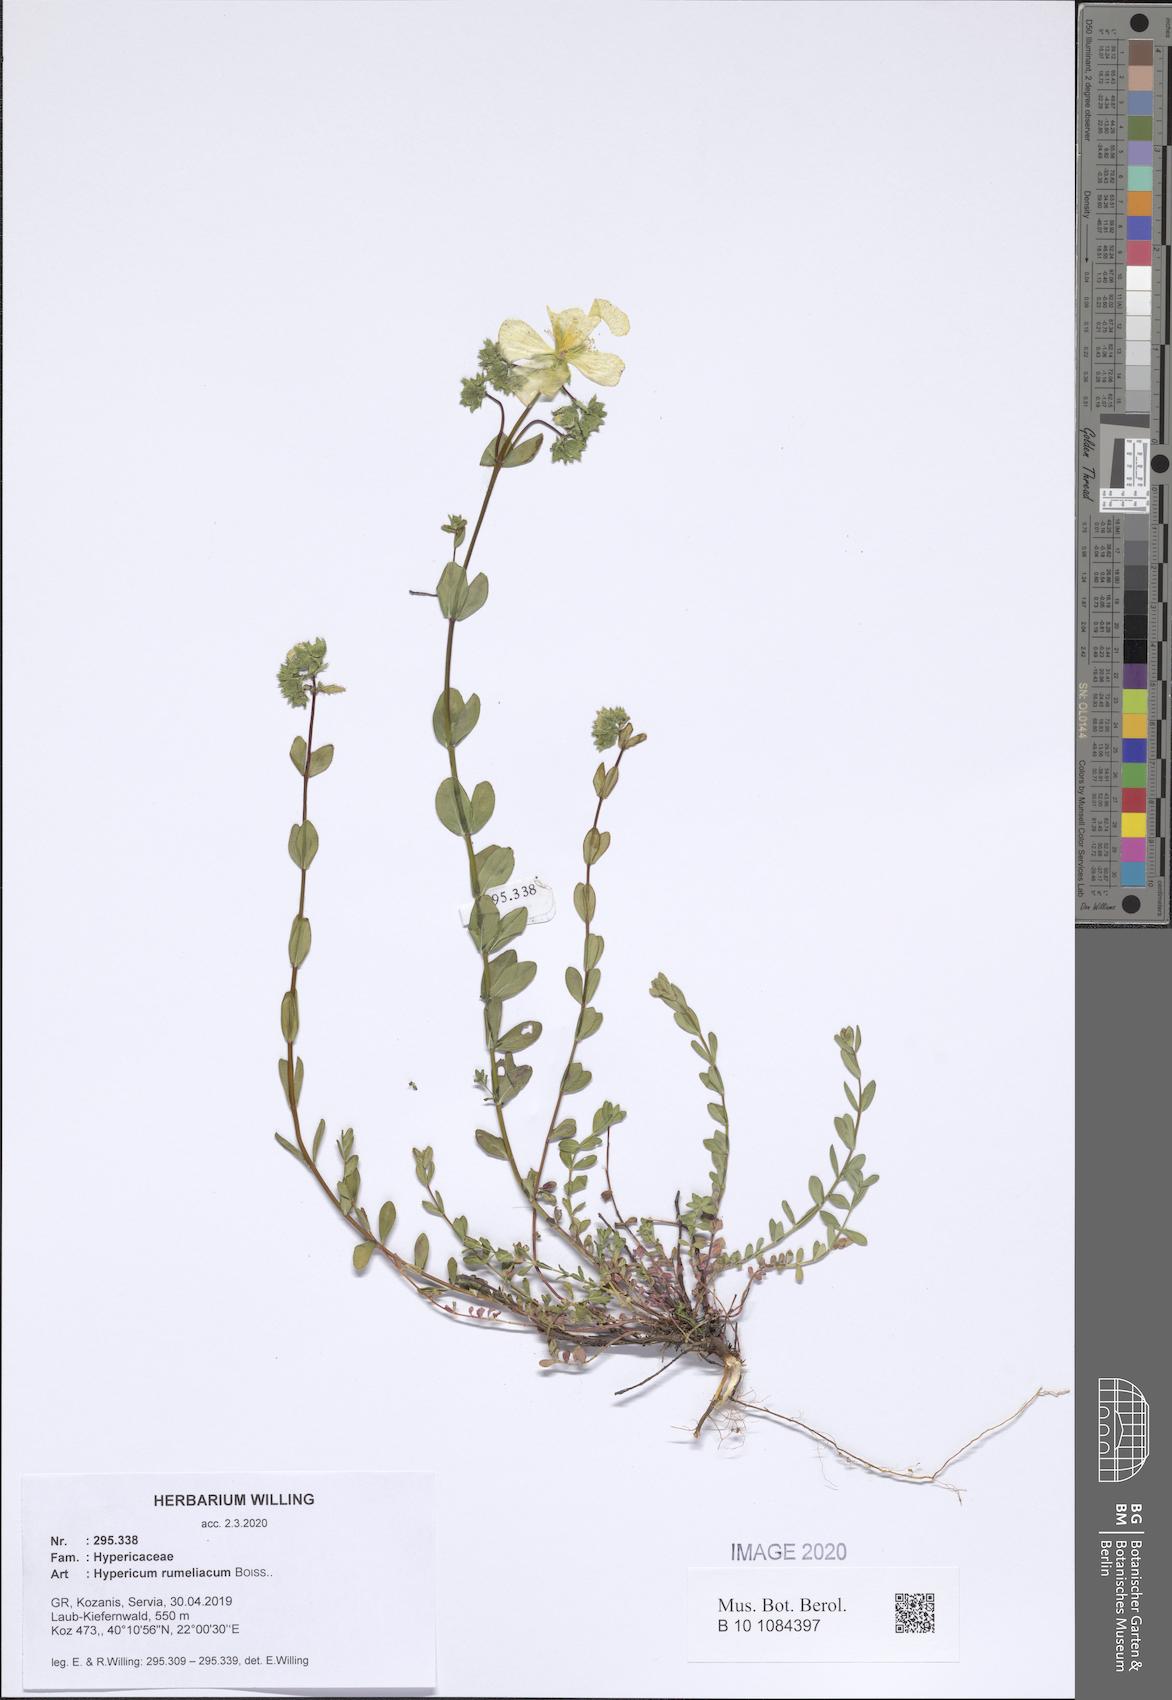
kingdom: Plantae
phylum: Tracheophyta
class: Magnoliopsida
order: Malpighiales
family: Hypericaceae
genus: Hypericum
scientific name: Hypericum rumeliacum
